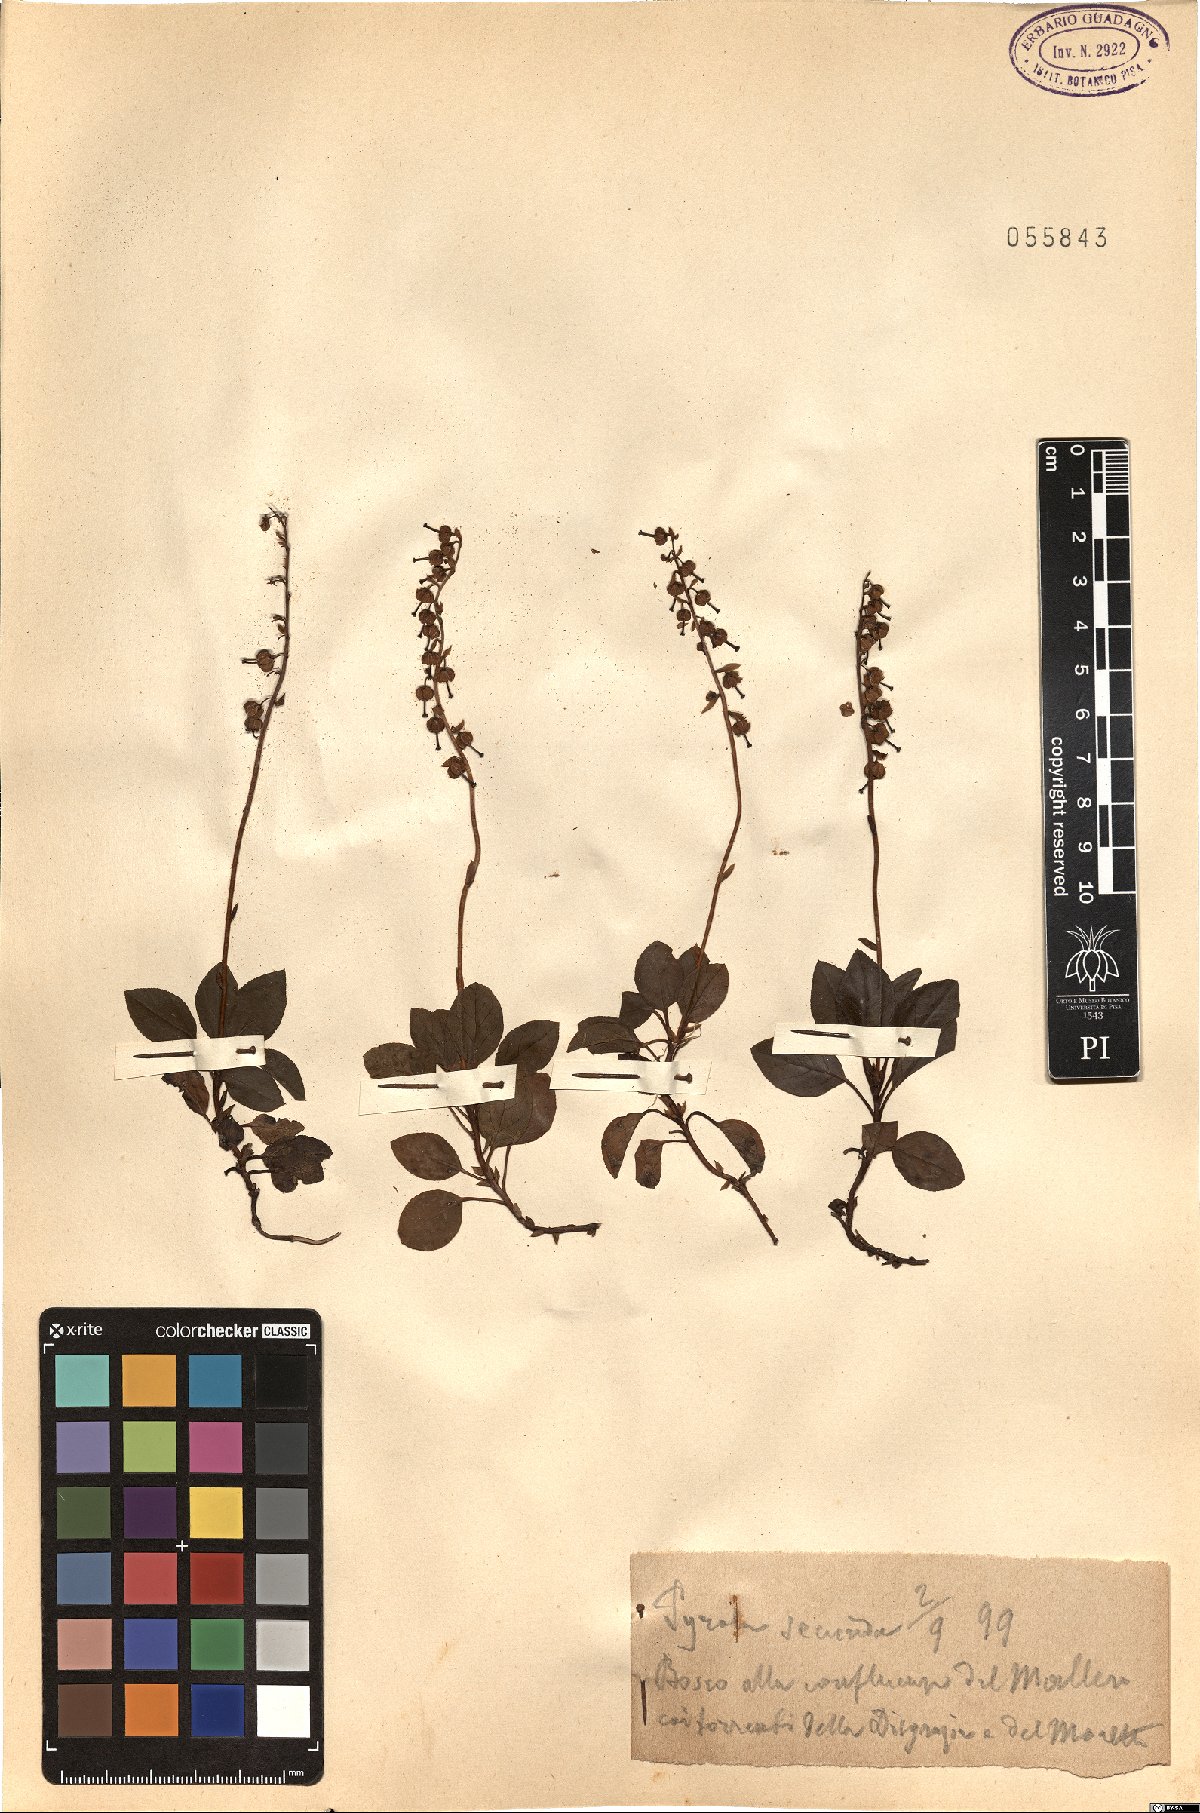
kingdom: Plantae
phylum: Tracheophyta
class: Magnoliopsida
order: Ericales
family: Ericaceae
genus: Orthilia
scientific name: Orthilia secunda
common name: One-sided orthilia
